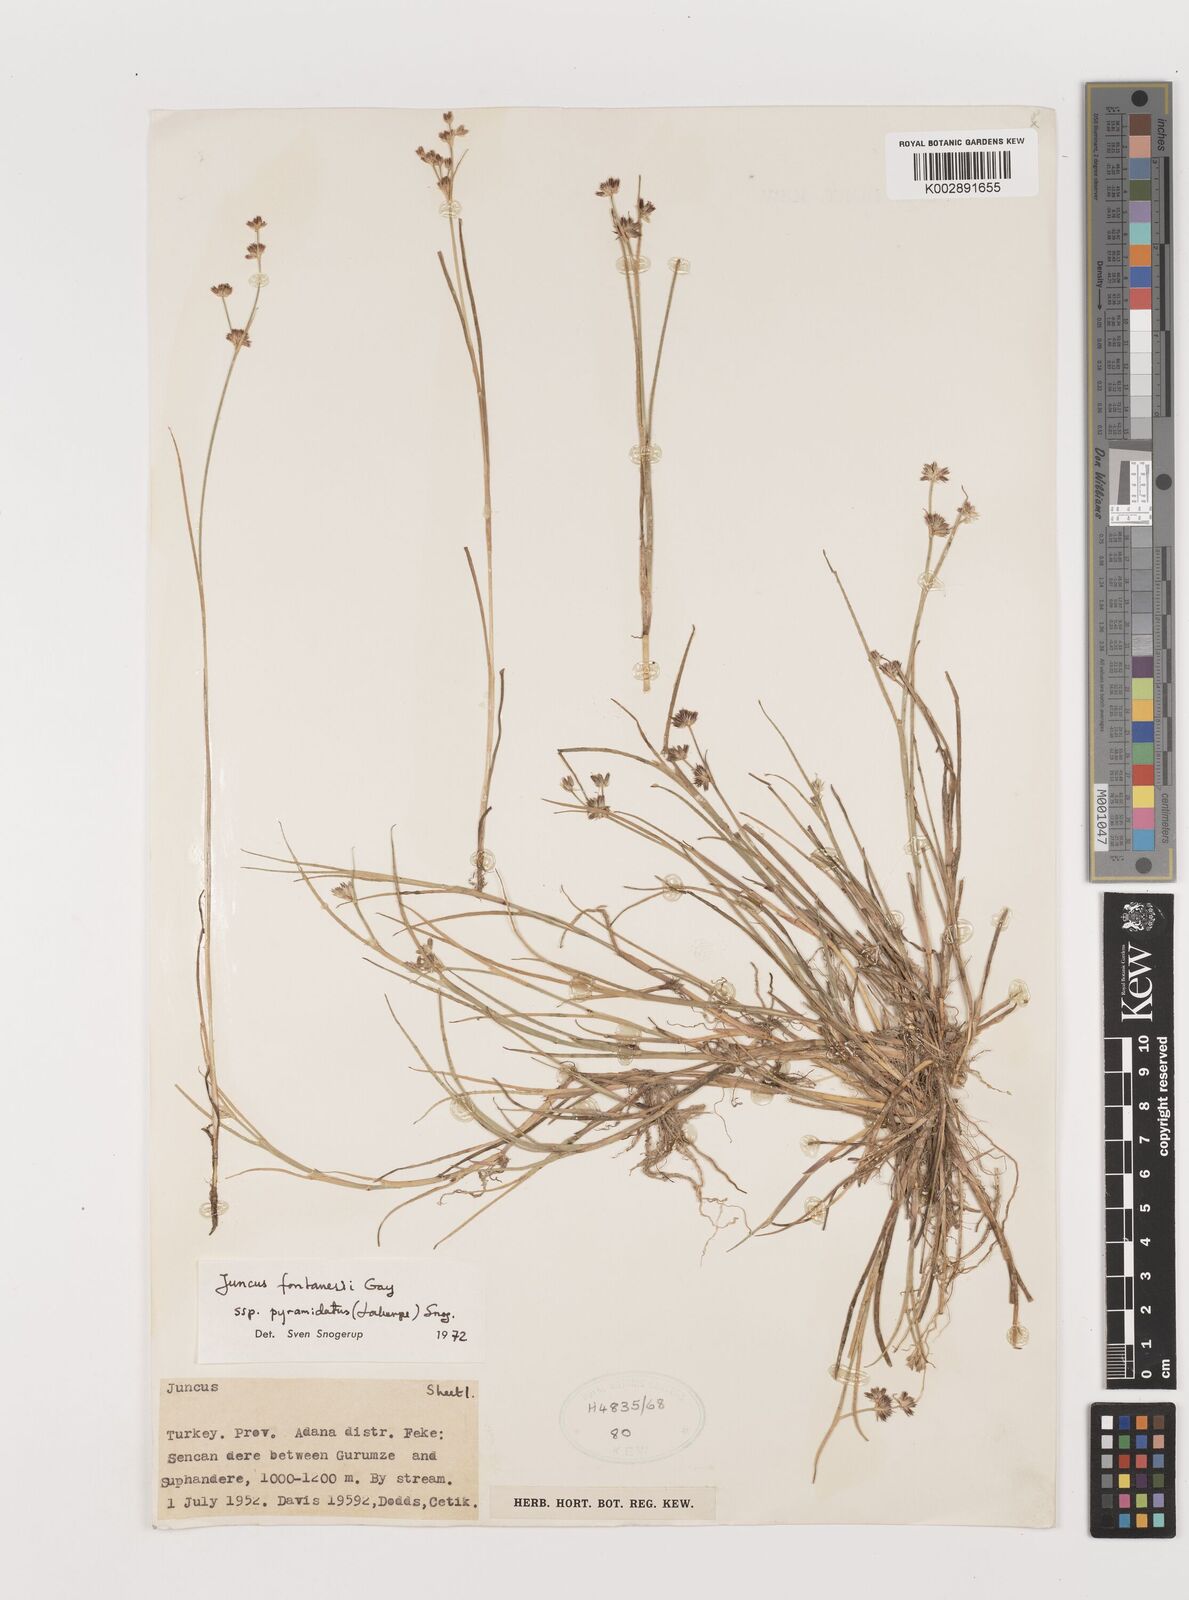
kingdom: Plantae
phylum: Tracheophyta
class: Liliopsida
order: Poales
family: Juncaceae
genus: Juncus
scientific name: Juncus fontanesii
